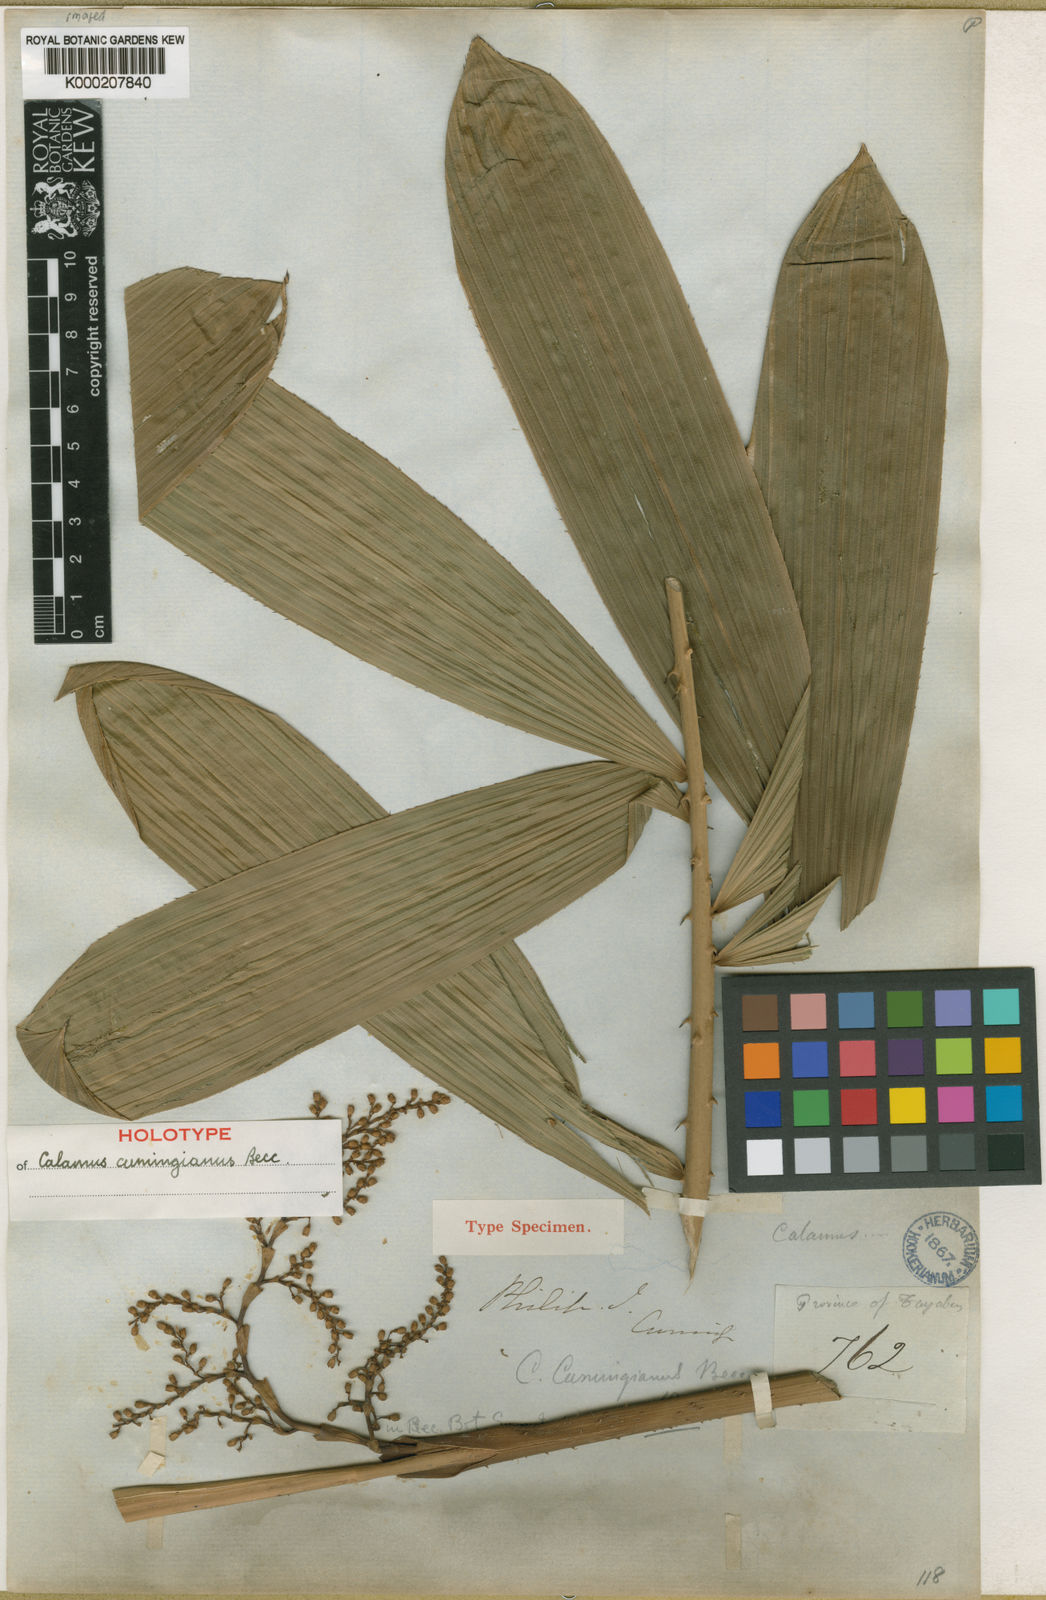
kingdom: Plantae
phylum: Tracheophyta
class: Liliopsida
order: Arecales
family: Arecaceae
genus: Calamus
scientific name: Calamus cumingianus
